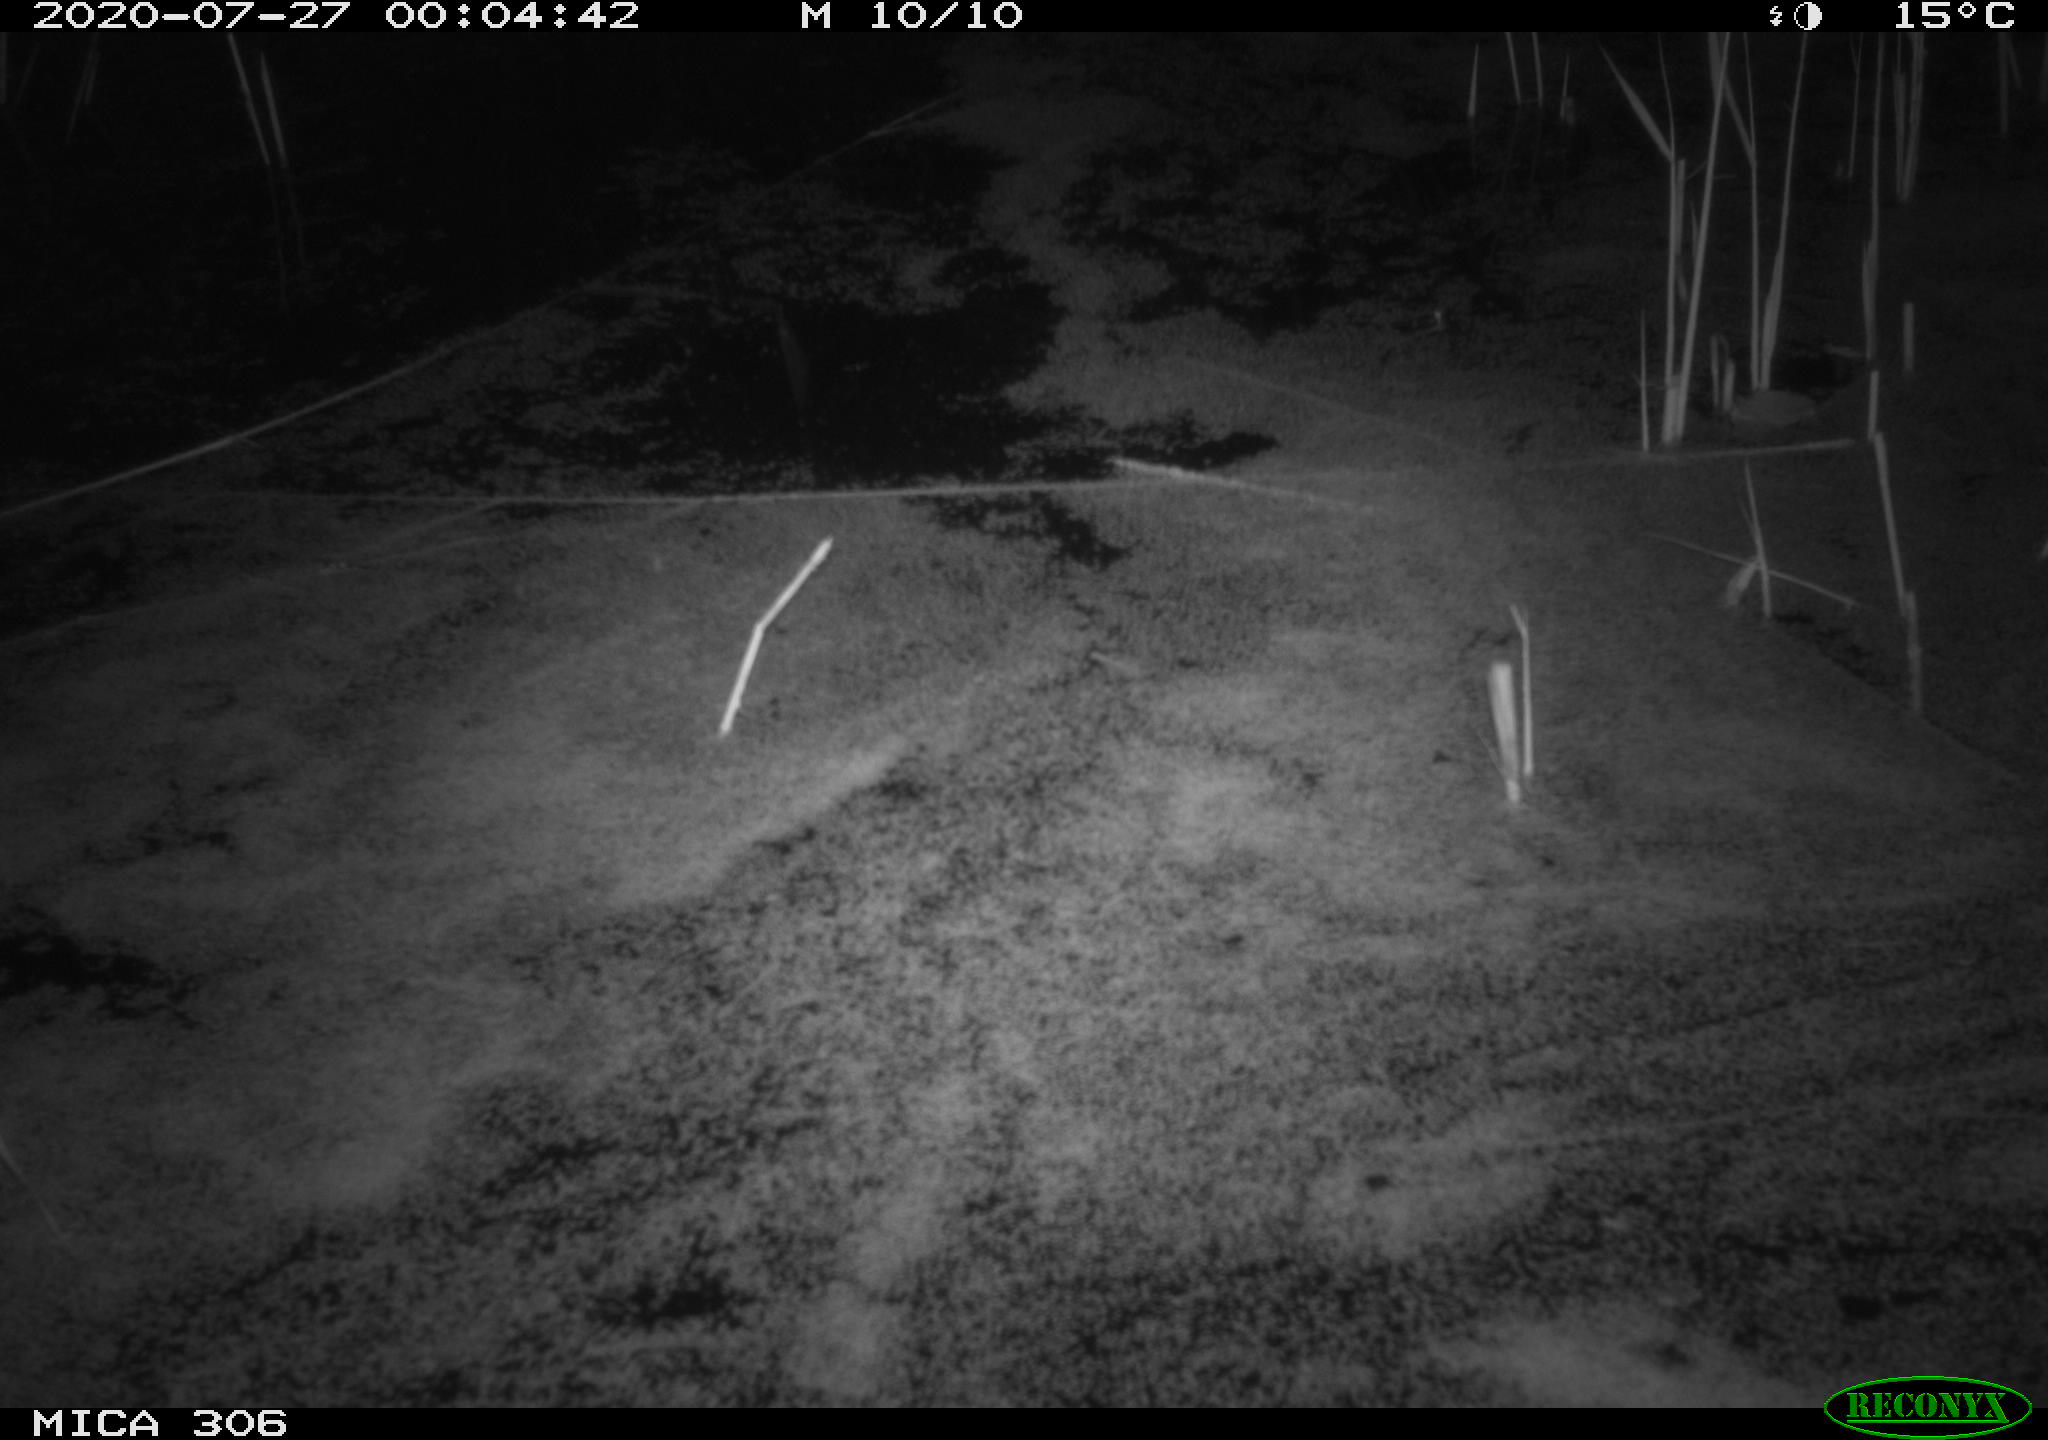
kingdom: Animalia
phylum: Chordata
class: Mammalia
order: Rodentia
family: Cricetidae
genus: Ondatra
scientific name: Ondatra zibethicus
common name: Muskrat
